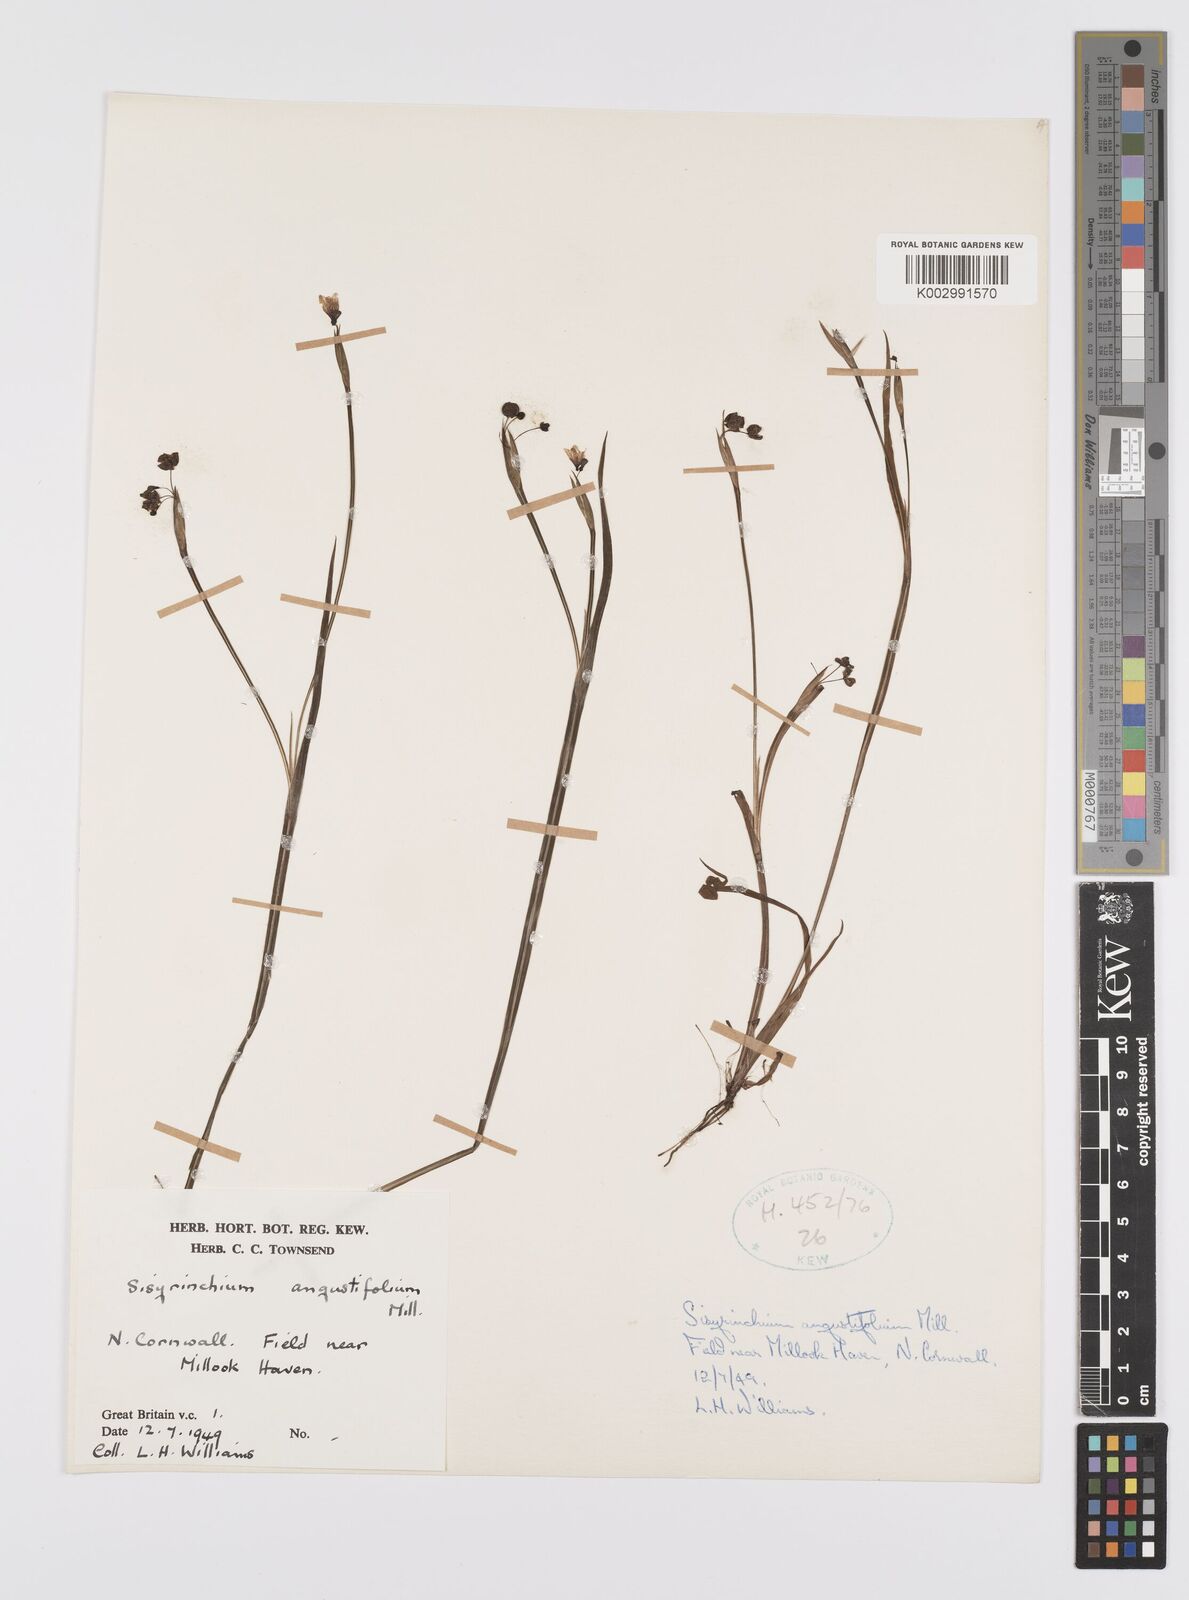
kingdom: Plantae
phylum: Tracheophyta
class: Liliopsida
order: Asparagales
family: Iridaceae
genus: Sisyrinchium
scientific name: Sisyrinchium angustifolium
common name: Narrow-leaf blue-eyed-grass
